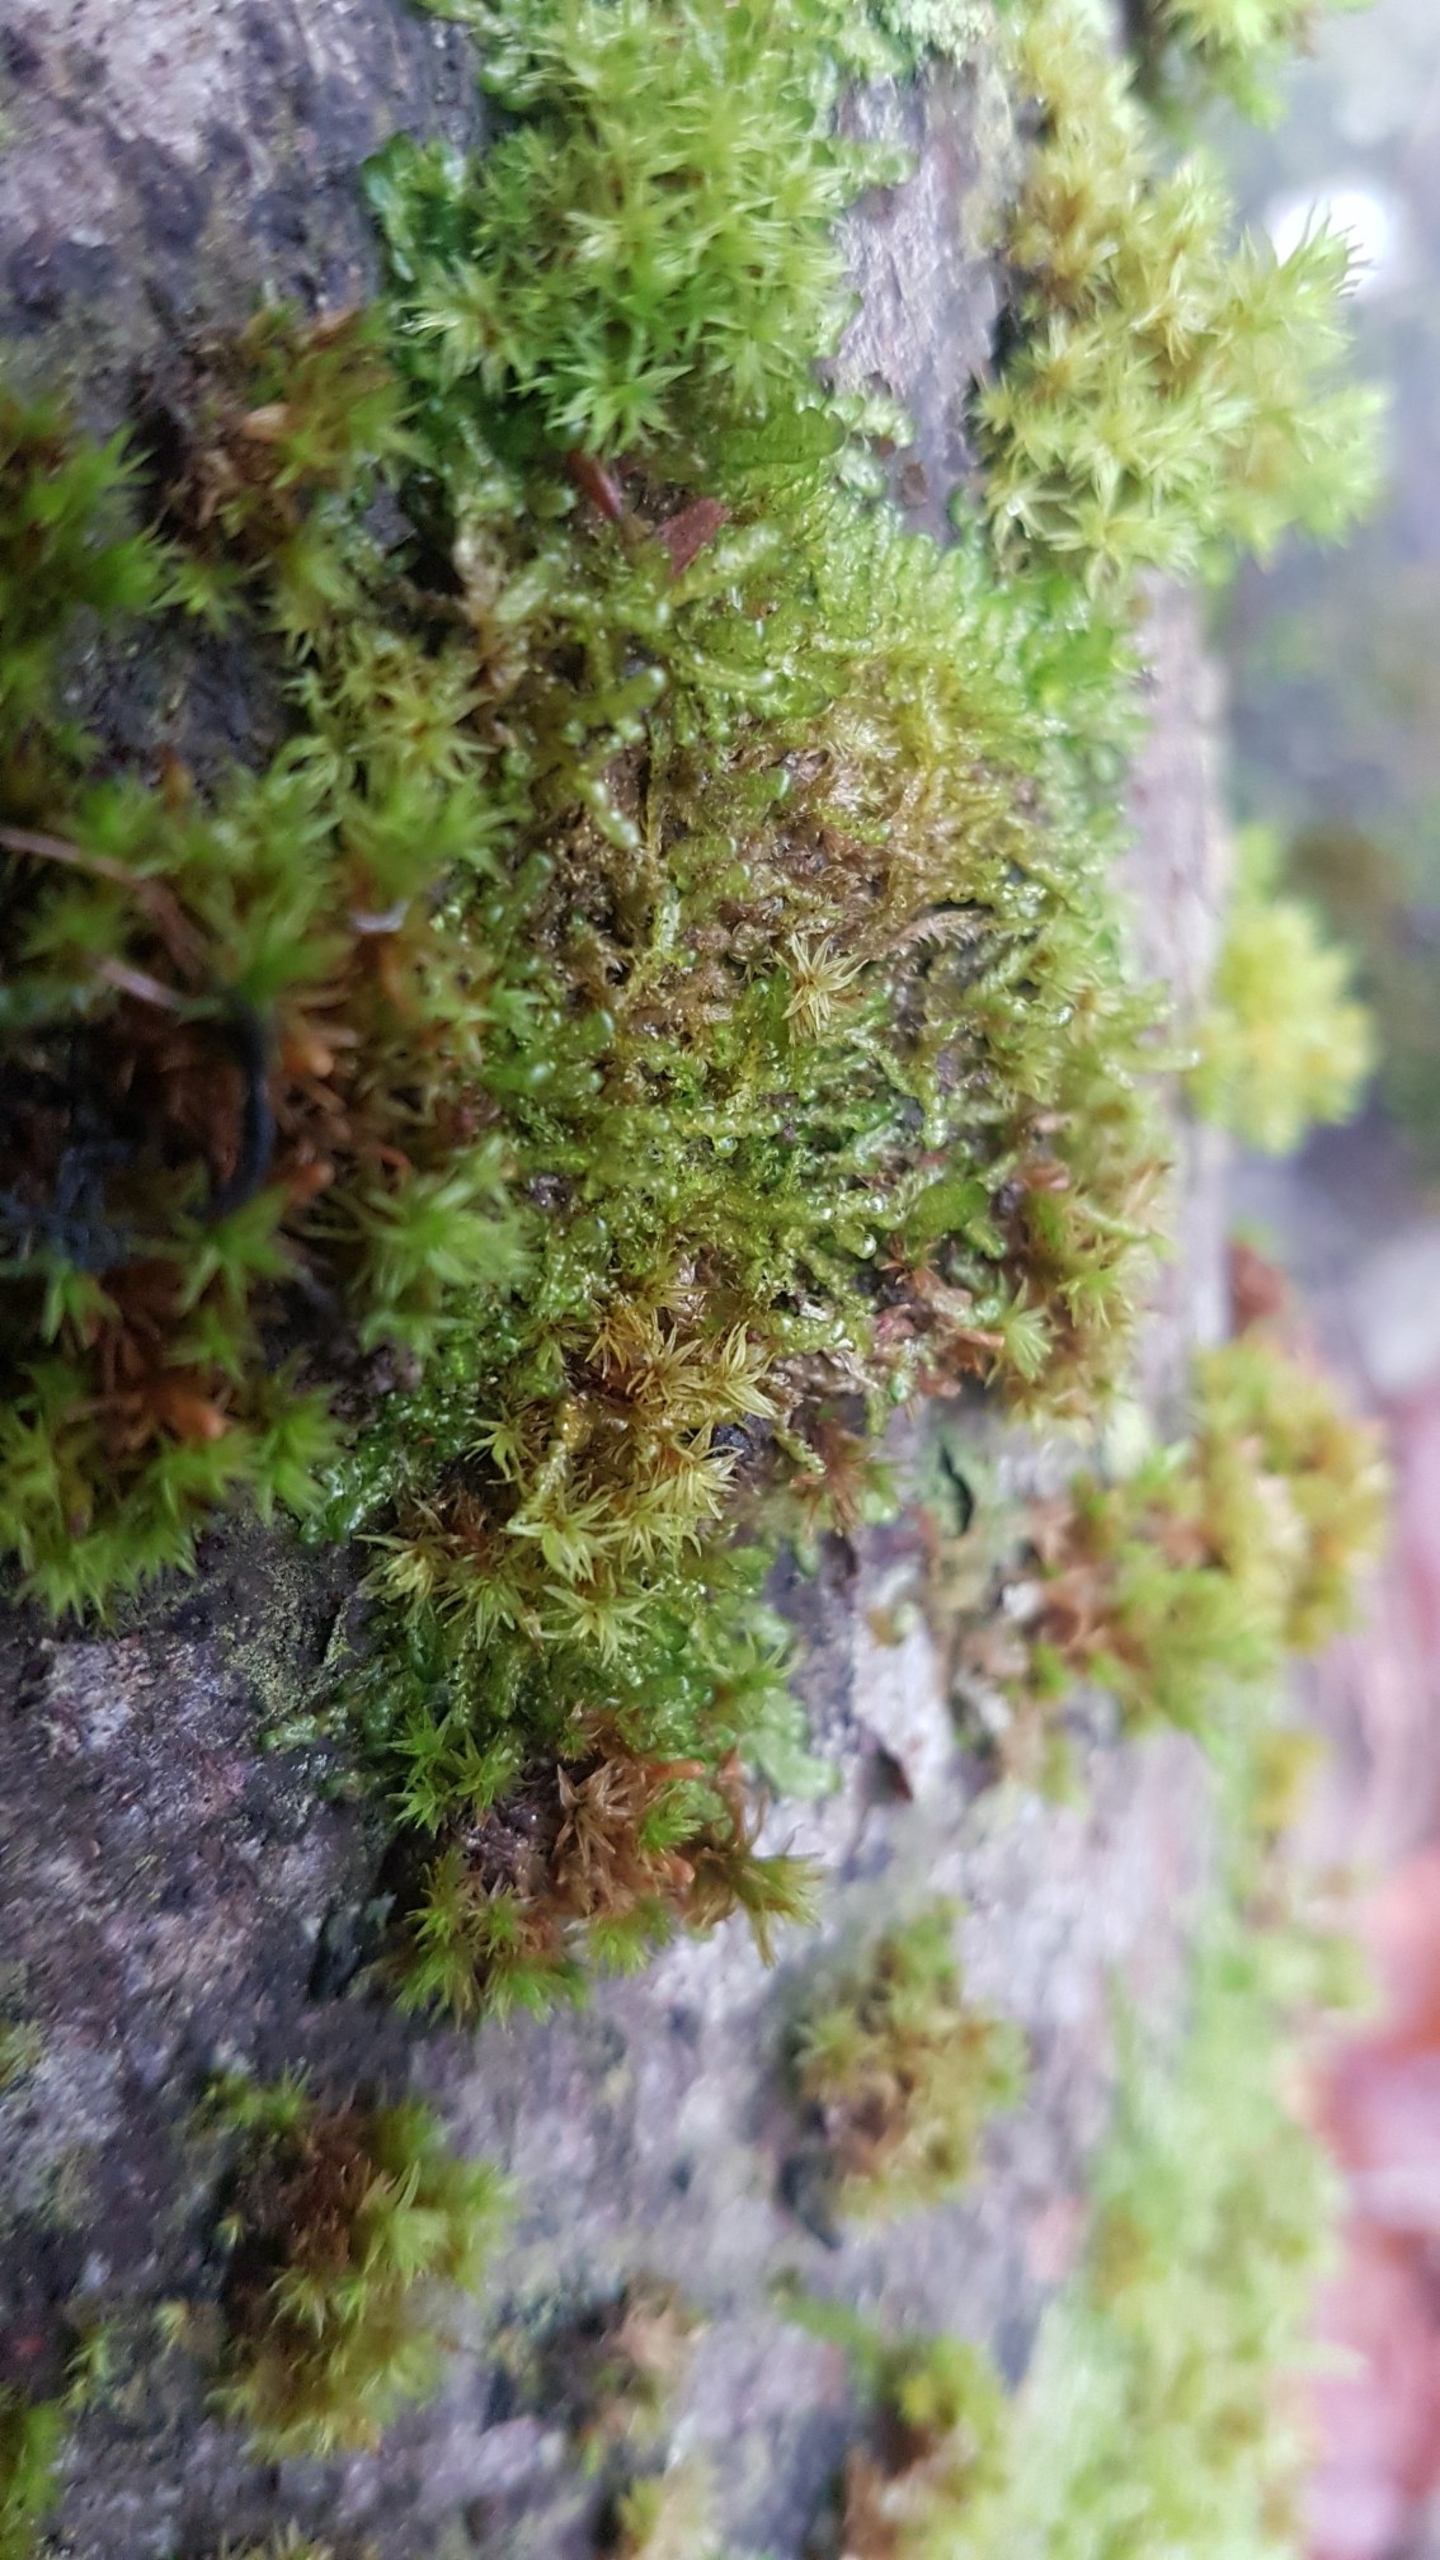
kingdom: Plantae
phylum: Bryophyta
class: Bryopsida
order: Hypnales
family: Neckeraceae
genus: Alleniella
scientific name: Alleniella complanata
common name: Almindelig fladmos
